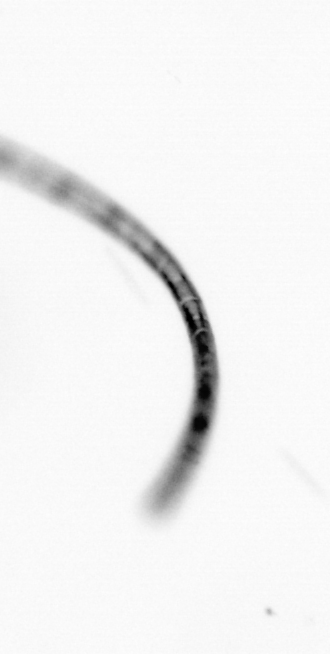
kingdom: Chromista
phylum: Ochrophyta
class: Bacillariophyceae
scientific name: Bacillariophyceae
